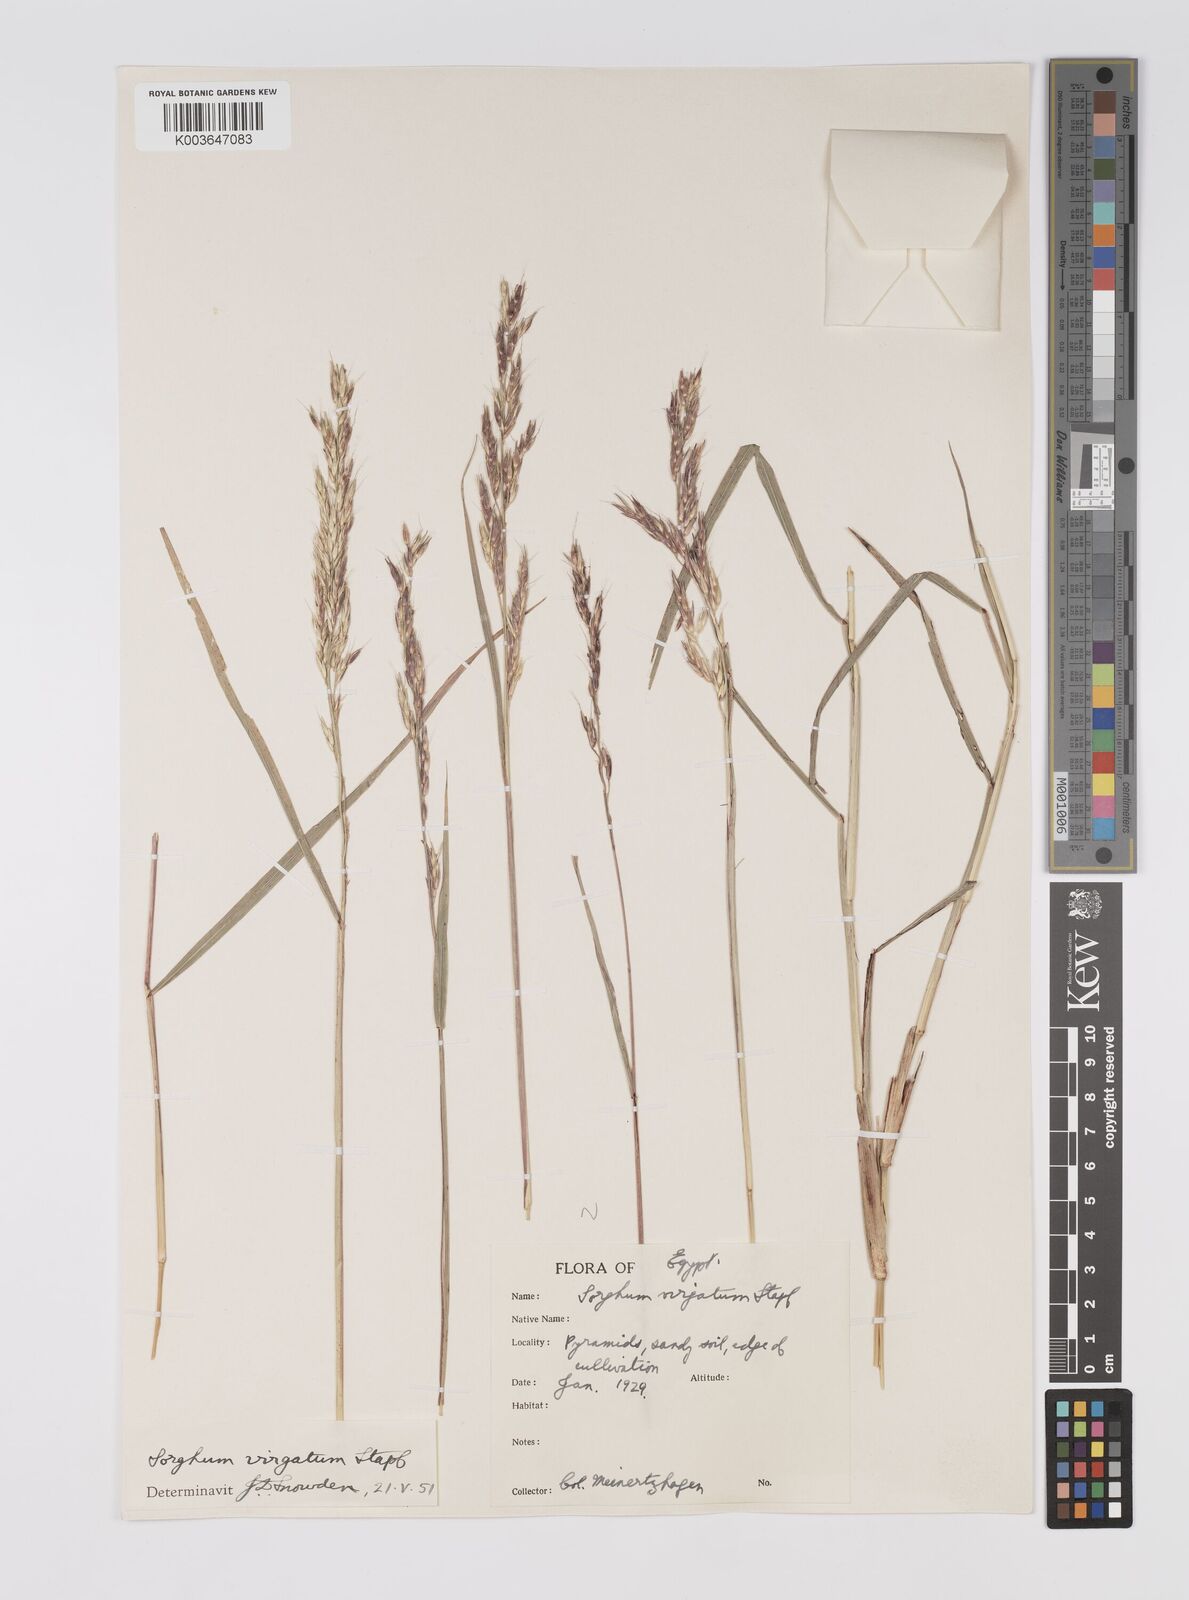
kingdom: Plantae
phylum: Tracheophyta
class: Liliopsida
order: Poales
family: Poaceae
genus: Sorghum
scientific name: Sorghum virgatum
